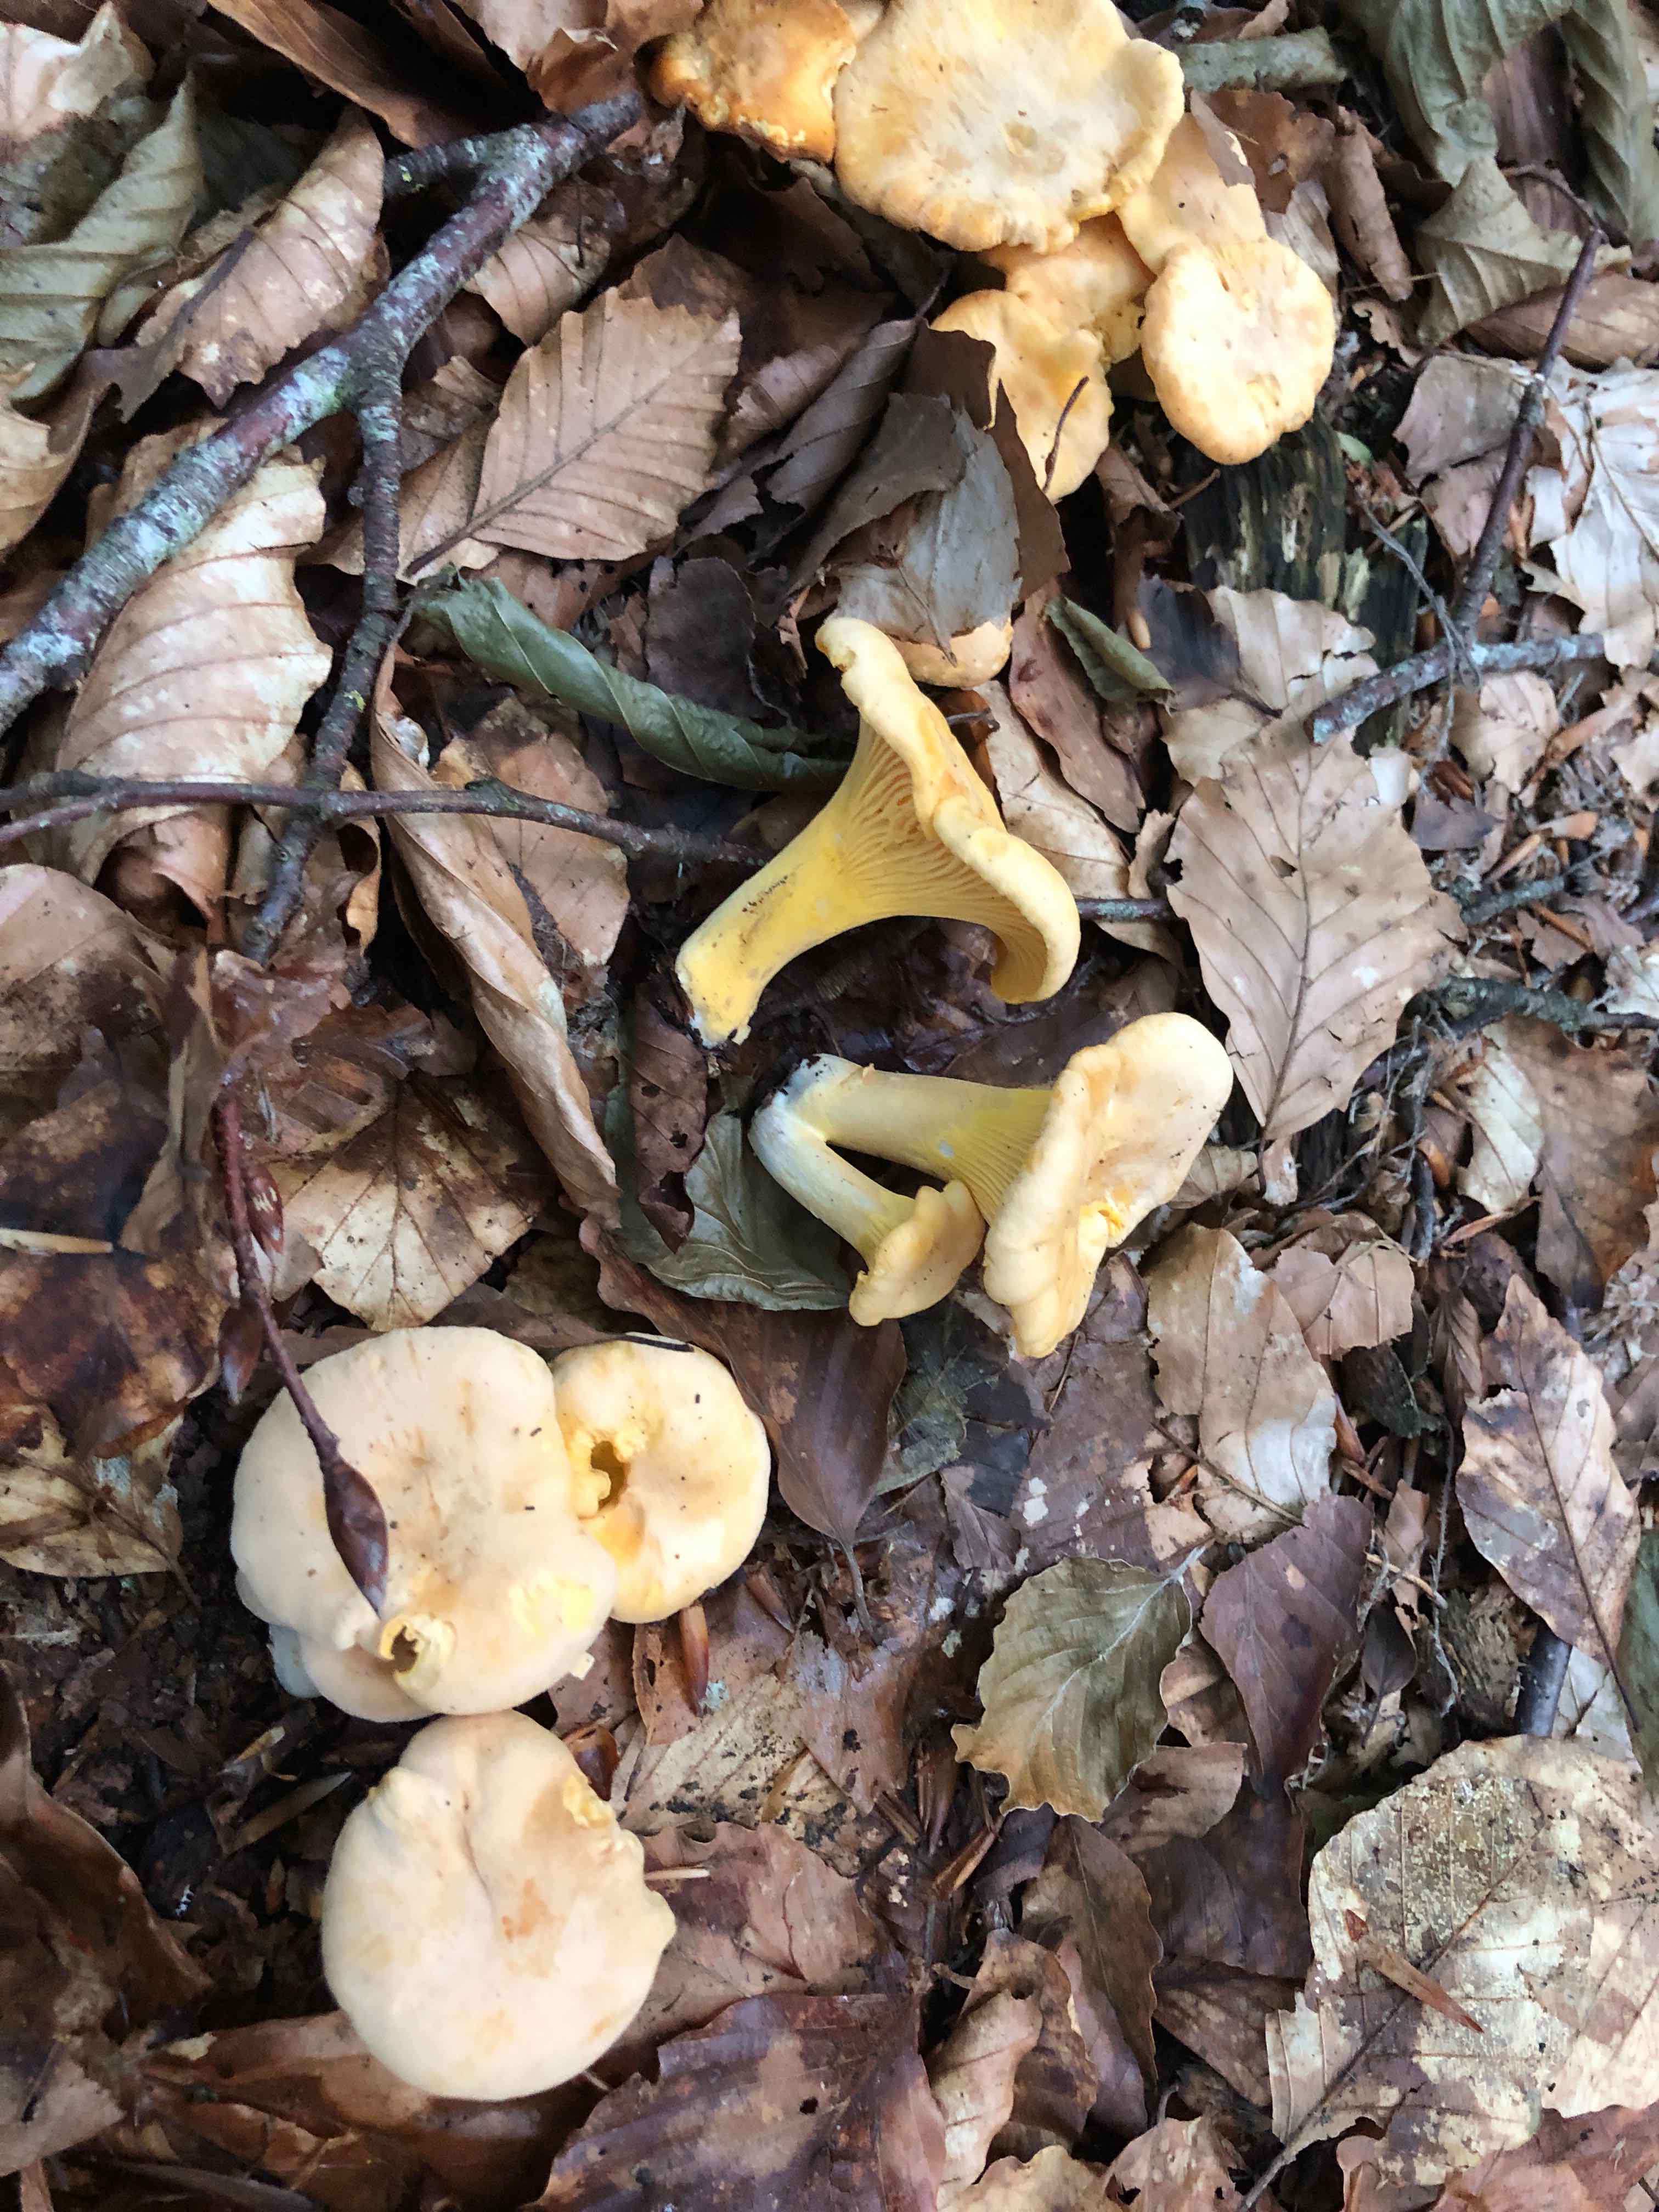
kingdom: Fungi
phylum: Basidiomycota
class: Agaricomycetes
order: Cantharellales
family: Hydnaceae
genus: Cantharellus
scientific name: Cantharellus pallens
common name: bleg kantarel
